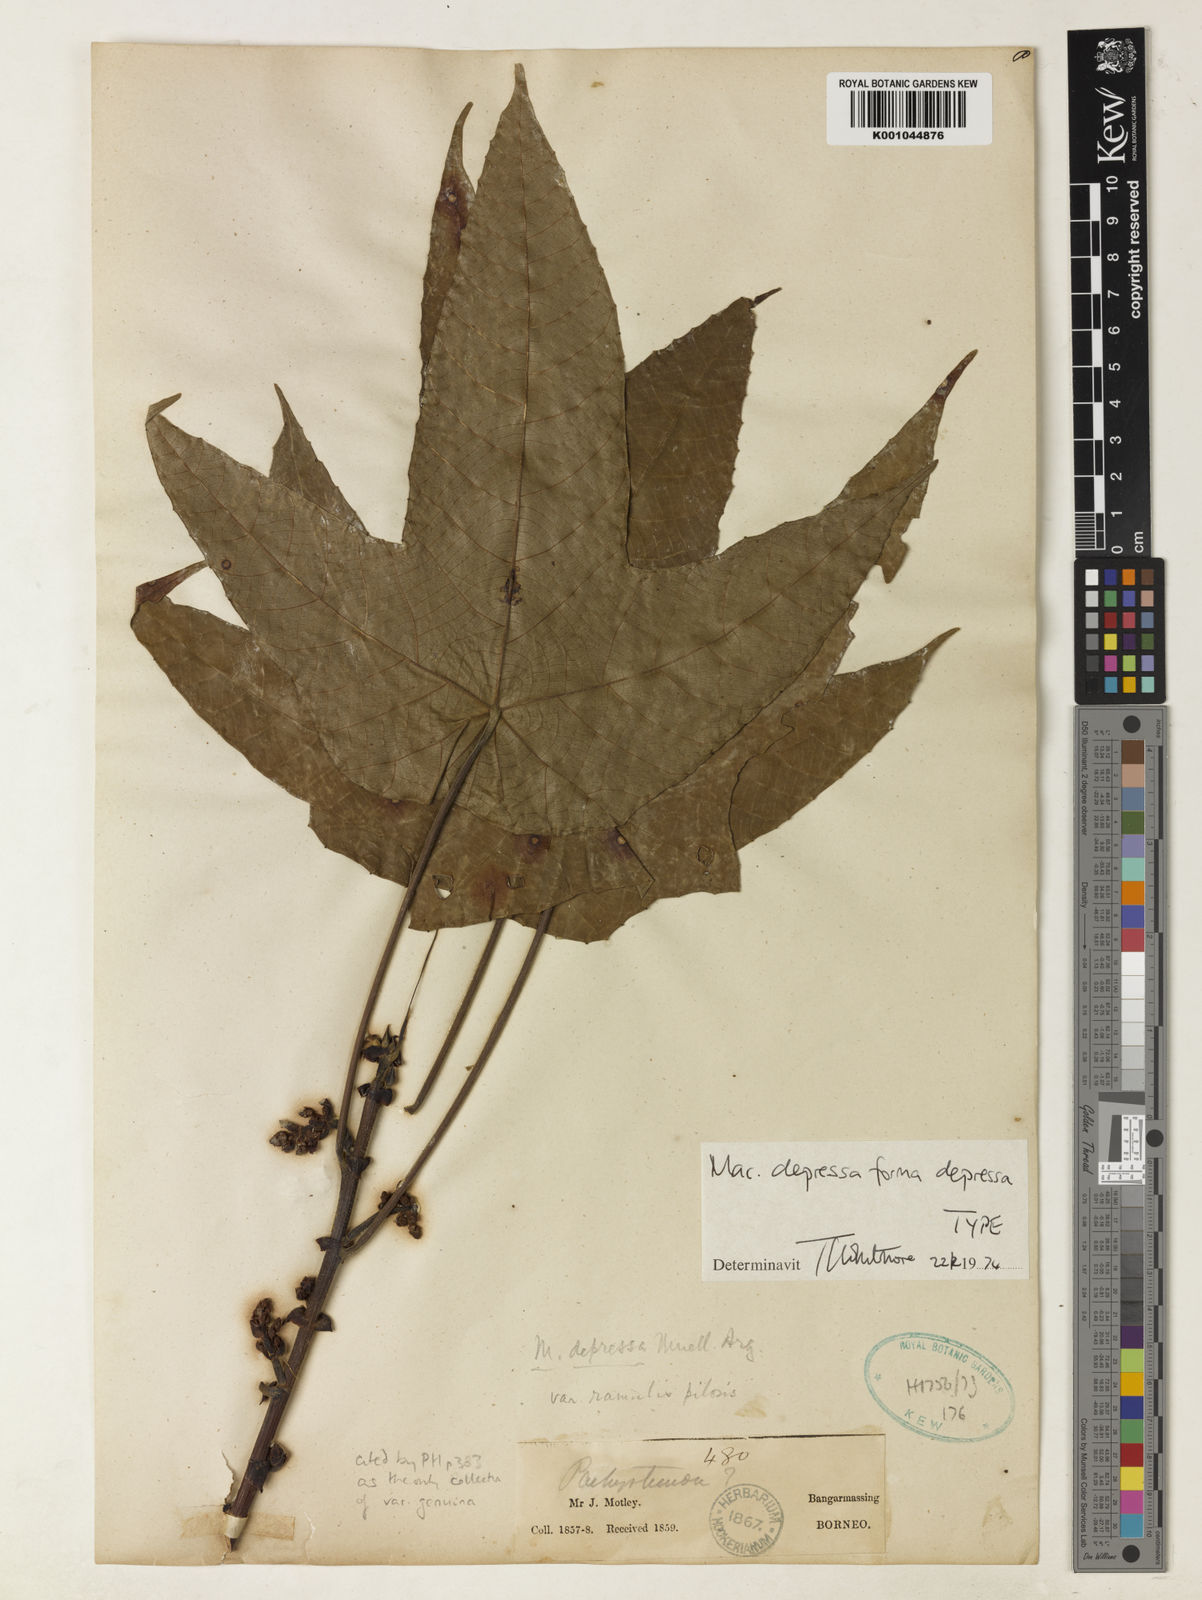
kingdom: Plantae
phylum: Tracheophyta
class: Magnoliopsida
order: Malpighiales
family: Euphorbiaceae
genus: Macaranga
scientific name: Macaranga
